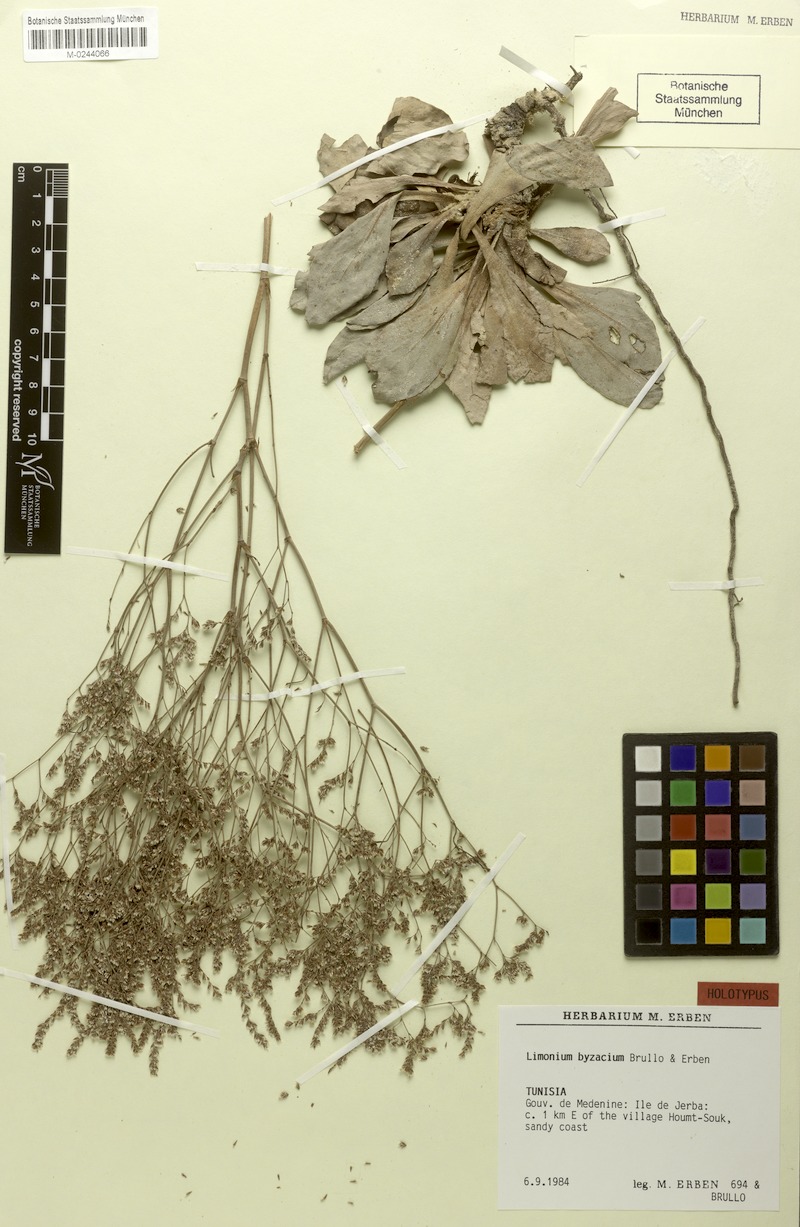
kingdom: Plantae
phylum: Tracheophyta
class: Magnoliopsida
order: Caryophyllales
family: Plumbaginaceae
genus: Limonium
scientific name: Limonium byzacium
